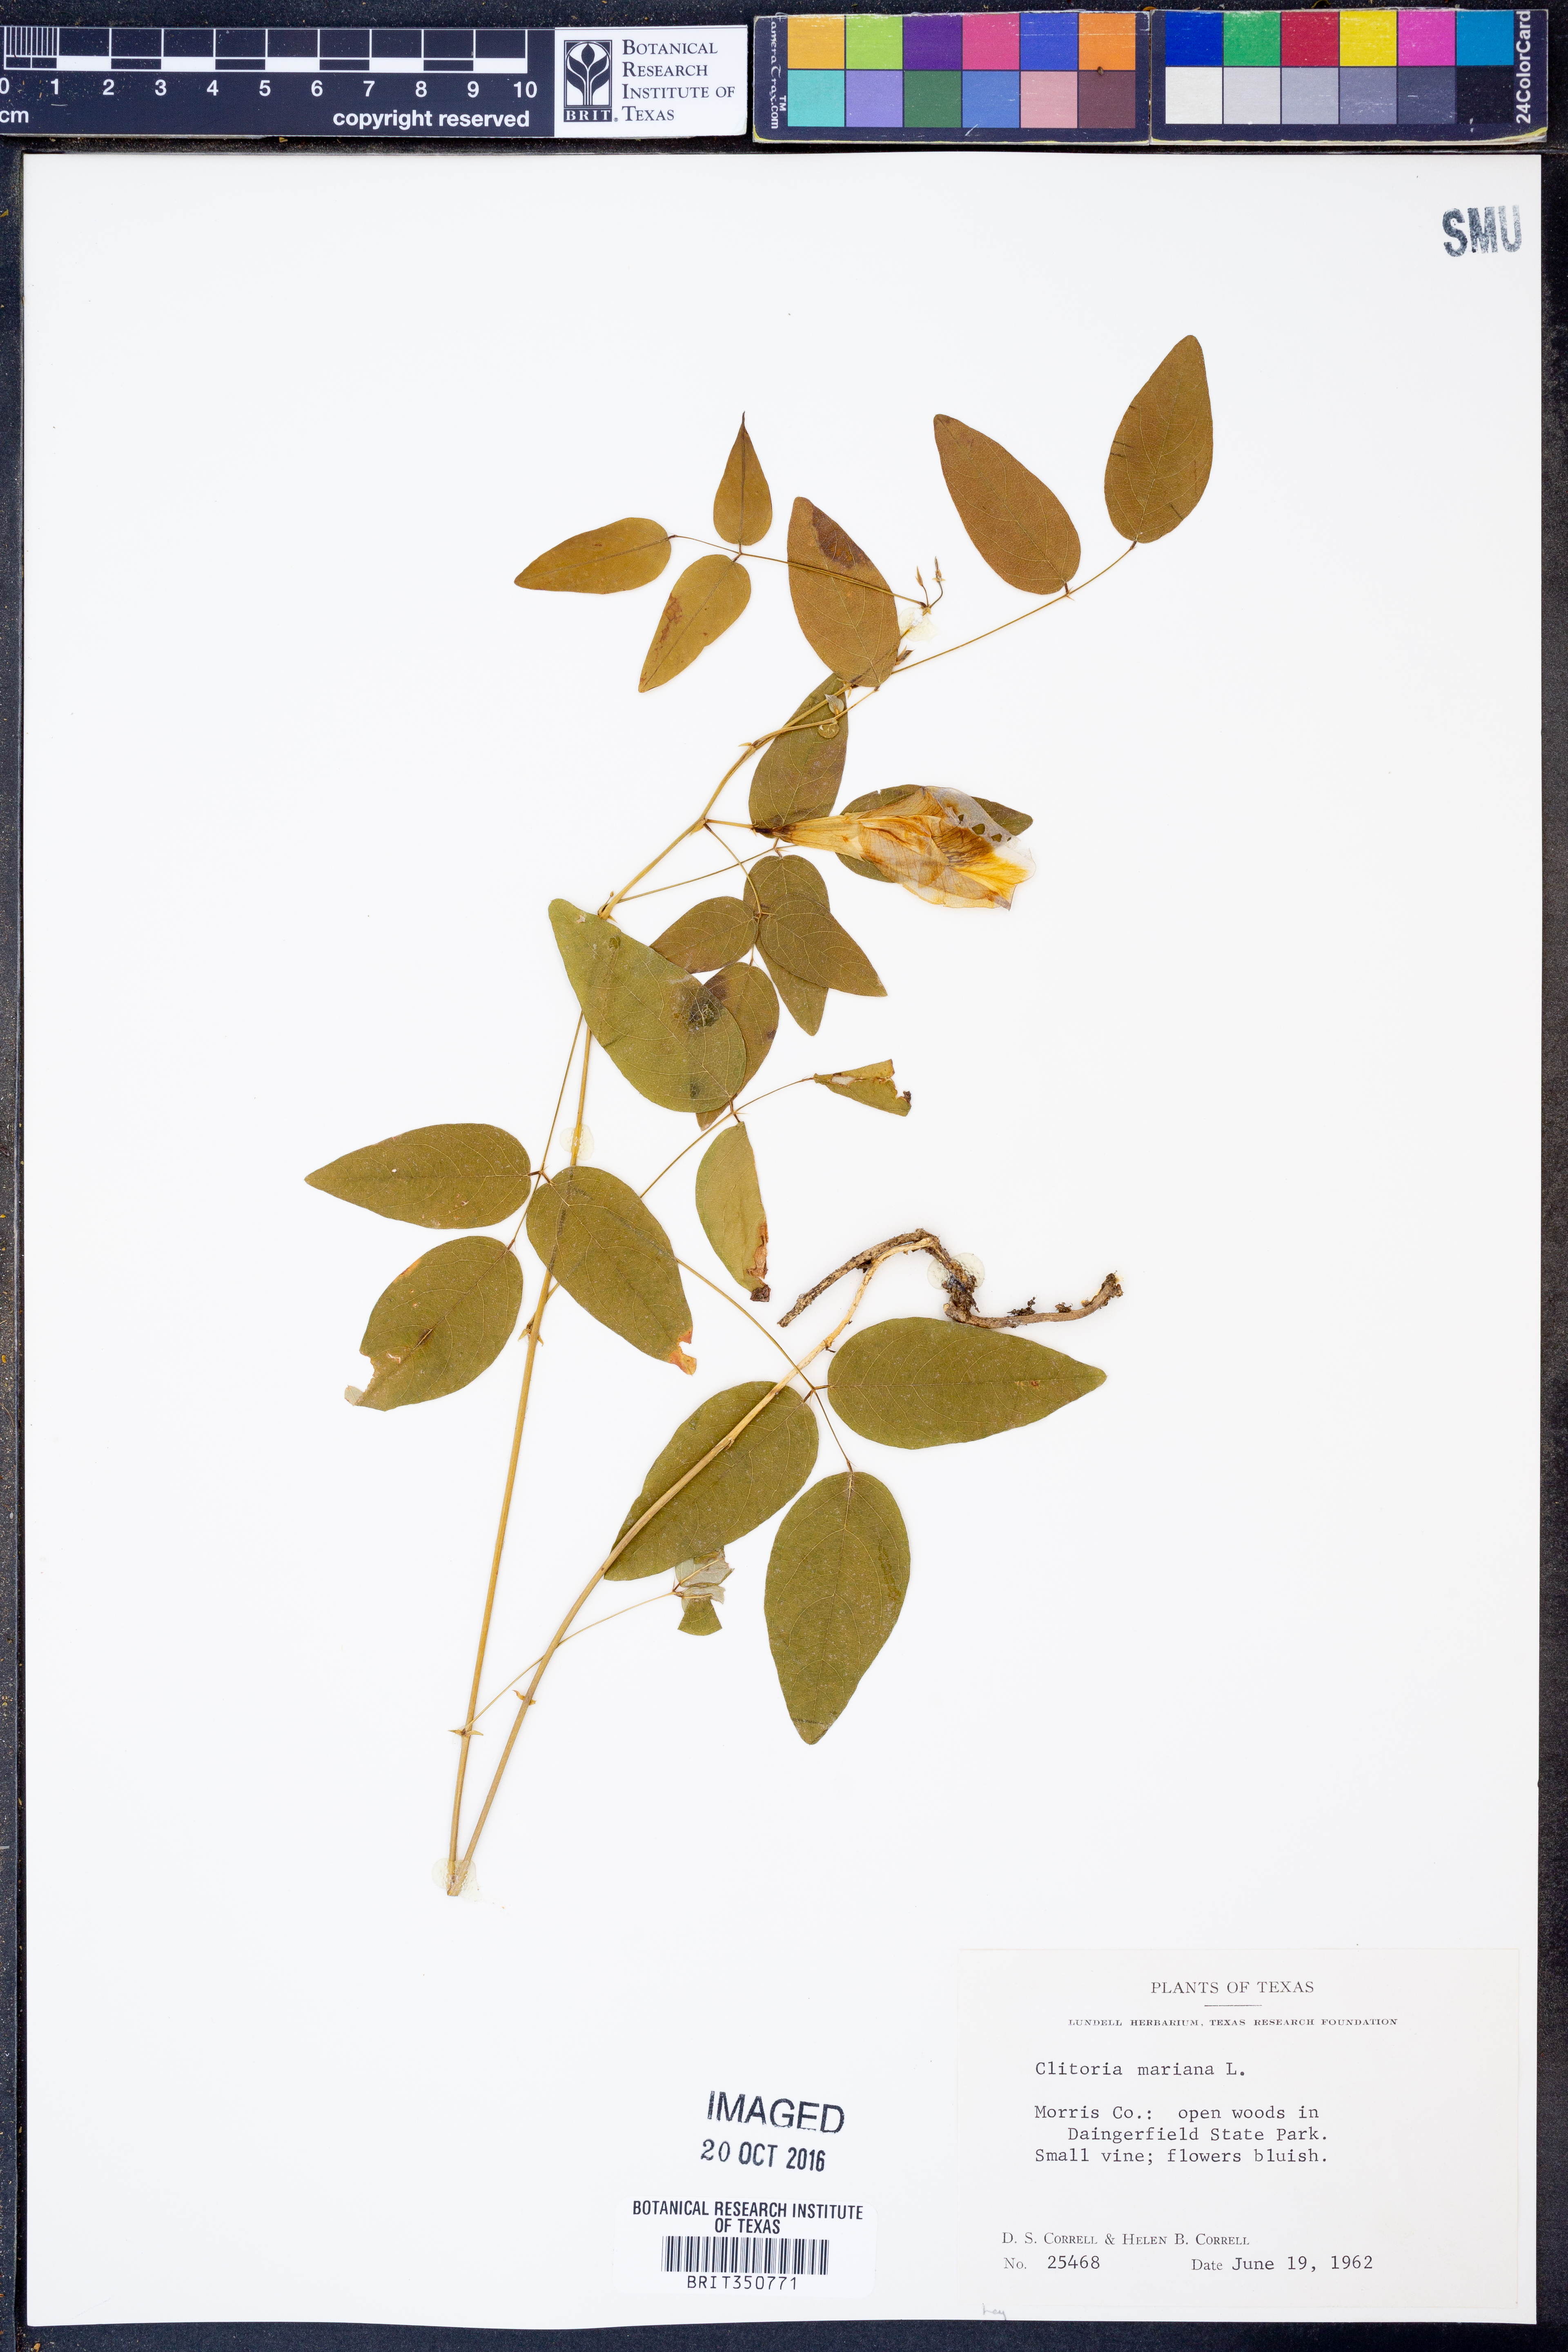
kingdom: Plantae
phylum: Tracheophyta
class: Magnoliopsida
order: Fabales
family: Fabaceae
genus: Clitoria
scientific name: Clitoria mariana
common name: Butterfly-pea
